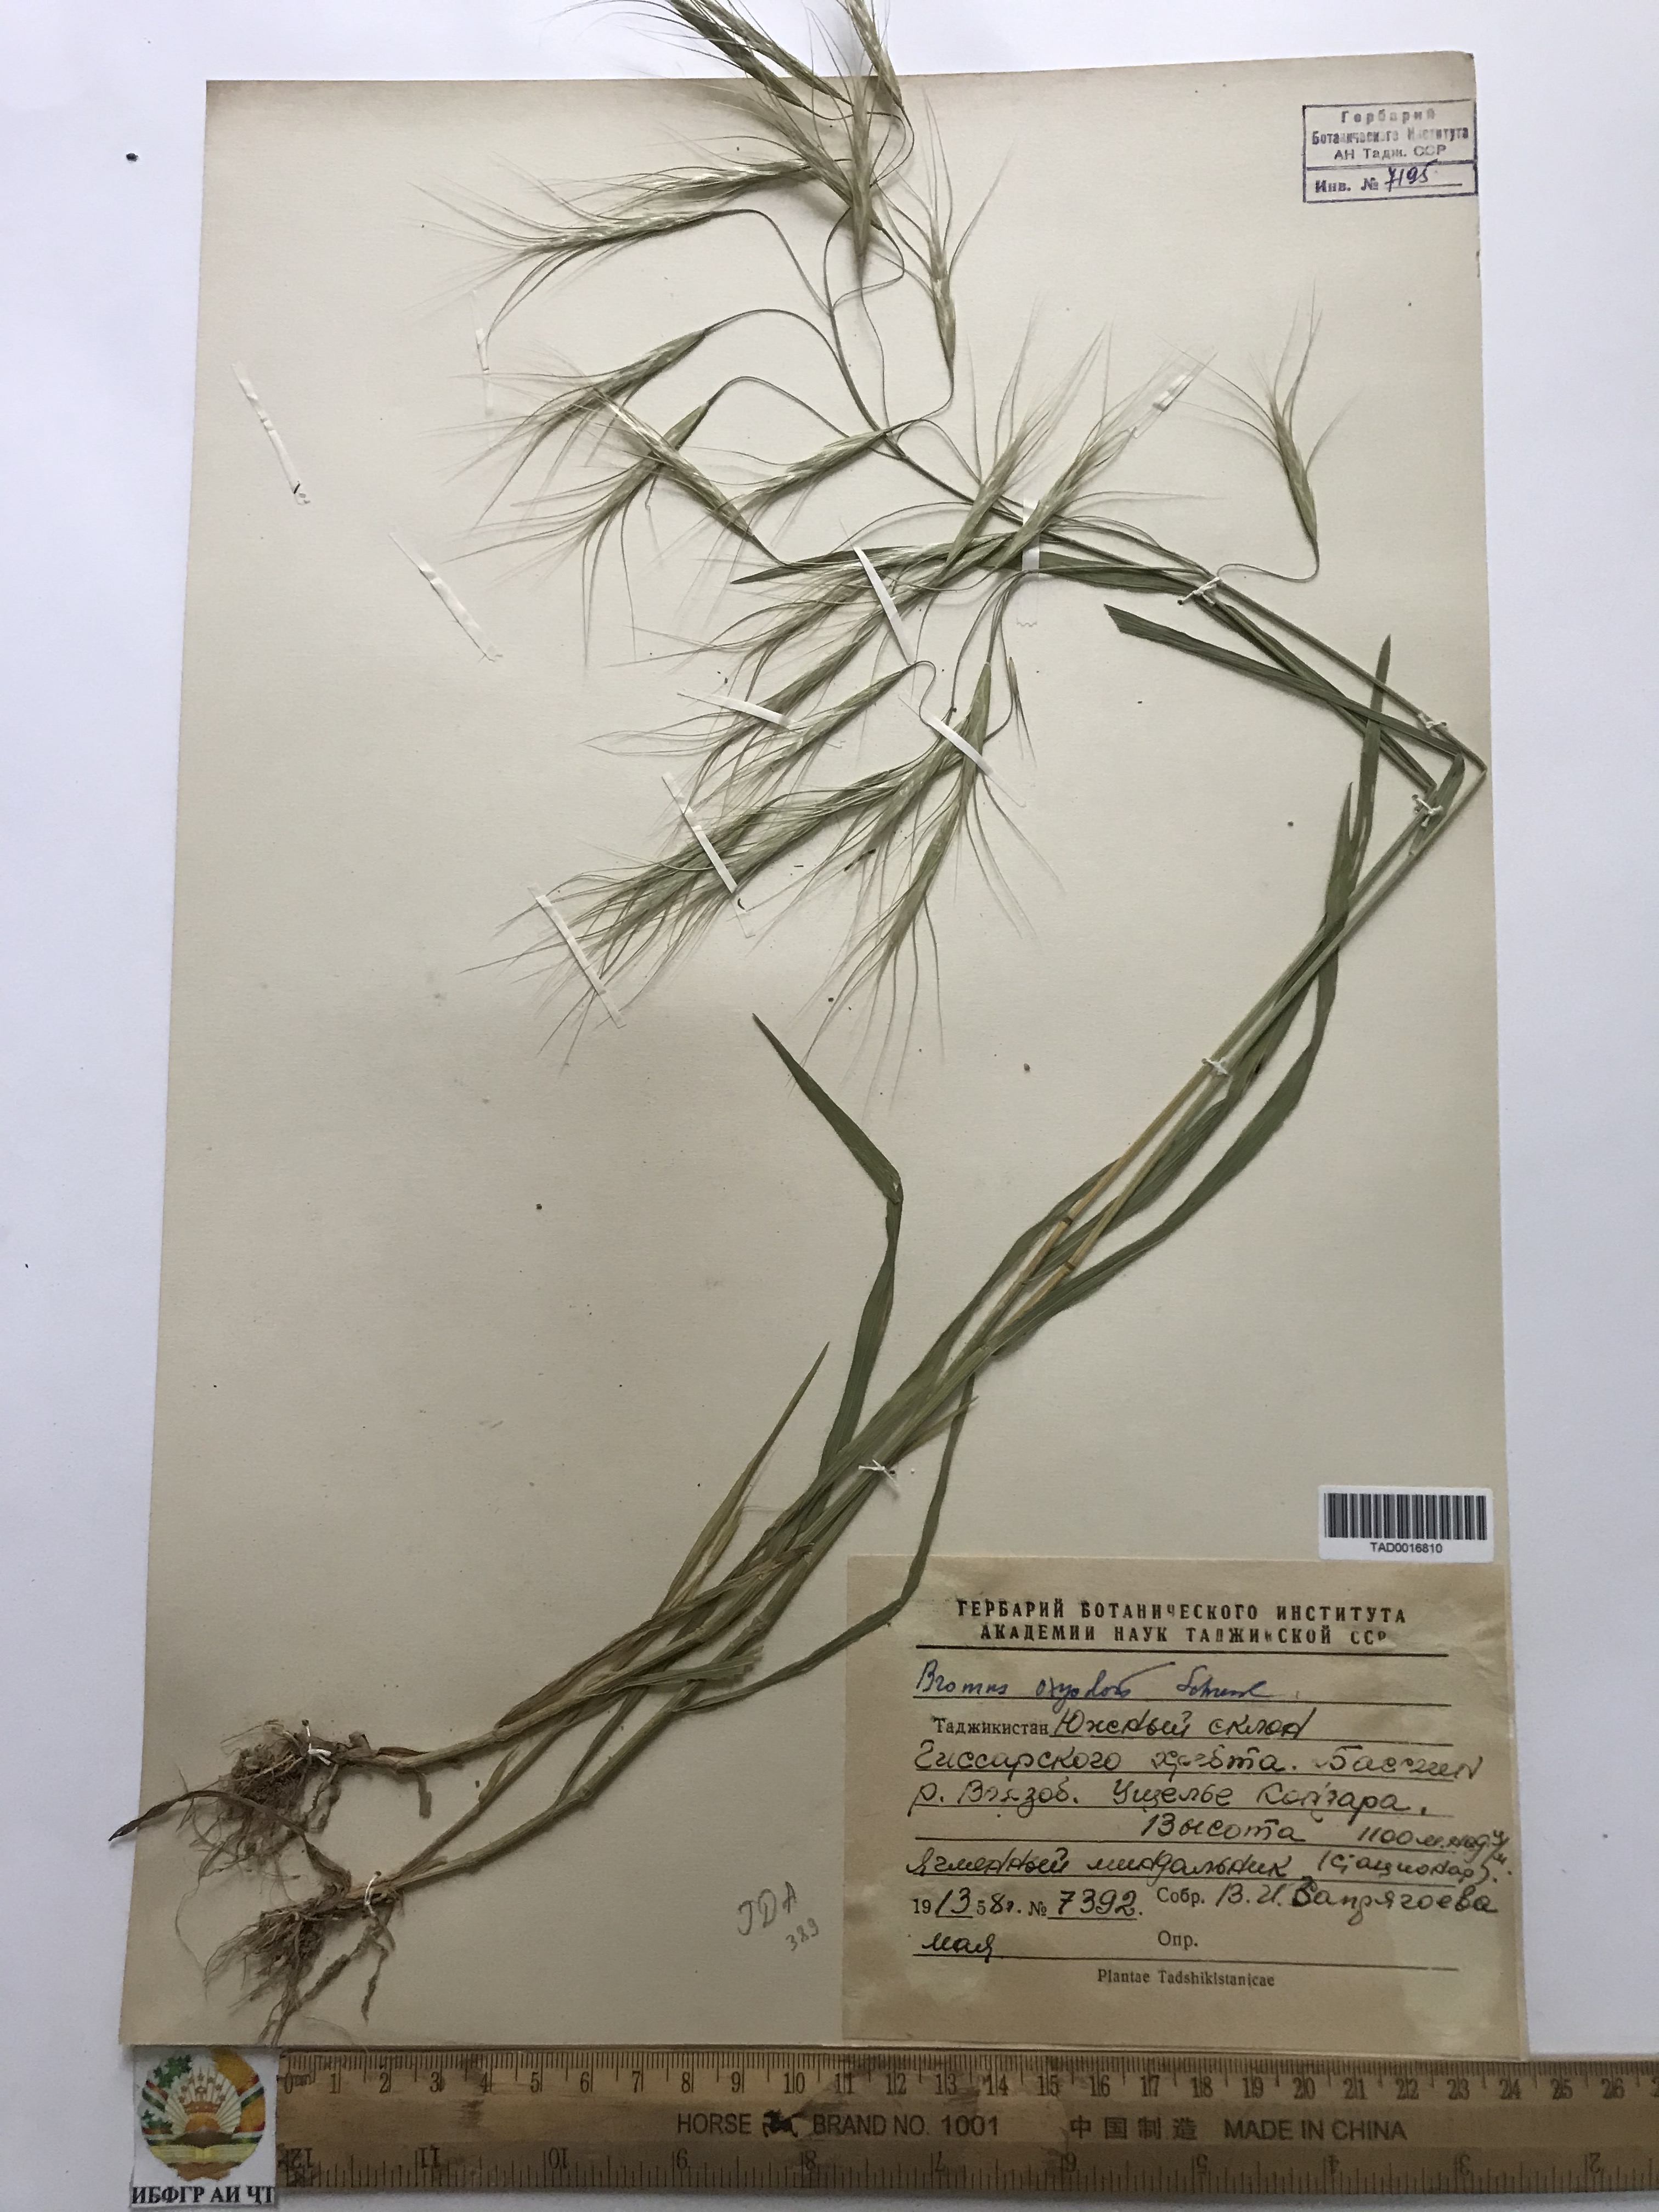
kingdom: Plantae
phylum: Tracheophyta
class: Liliopsida
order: Poales
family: Poaceae
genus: Bromus
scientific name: Bromus oxyodon
